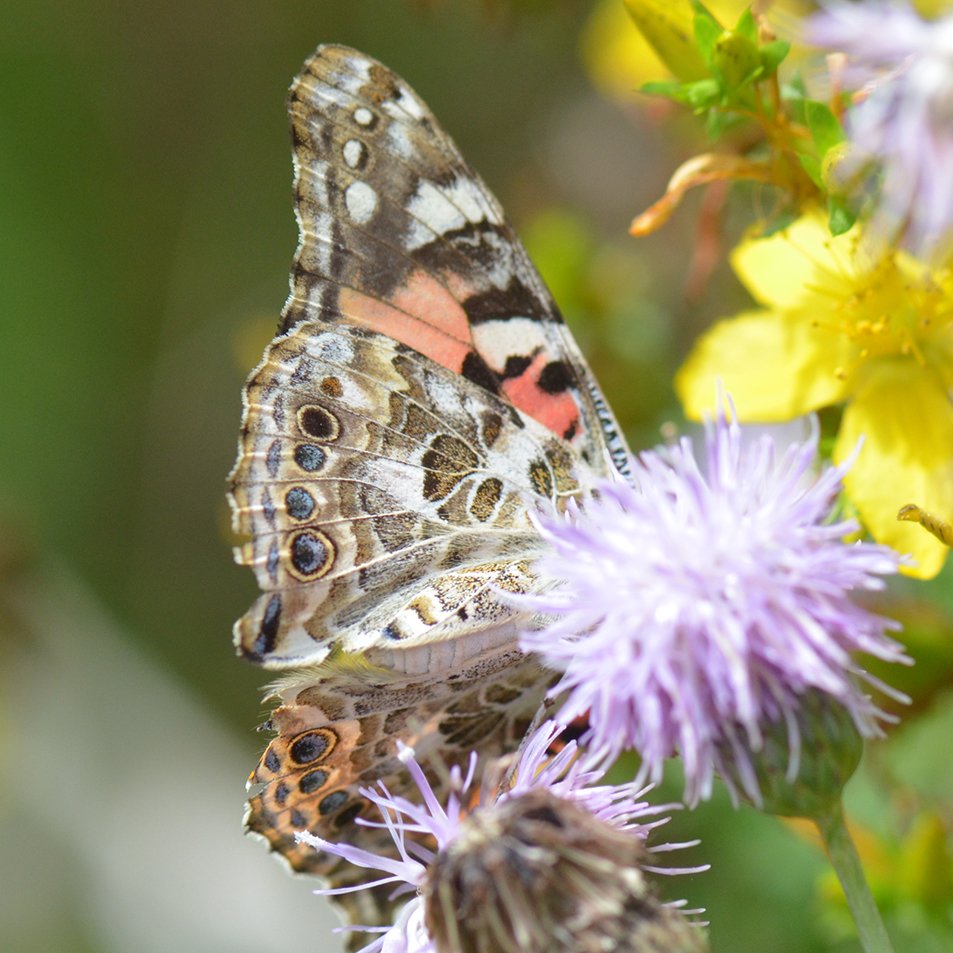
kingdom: Animalia
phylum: Arthropoda
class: Insecta
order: Lepidoptera
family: Nymphalidae
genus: Vanessa
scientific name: Vanessa cardui
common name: Painted Lady
